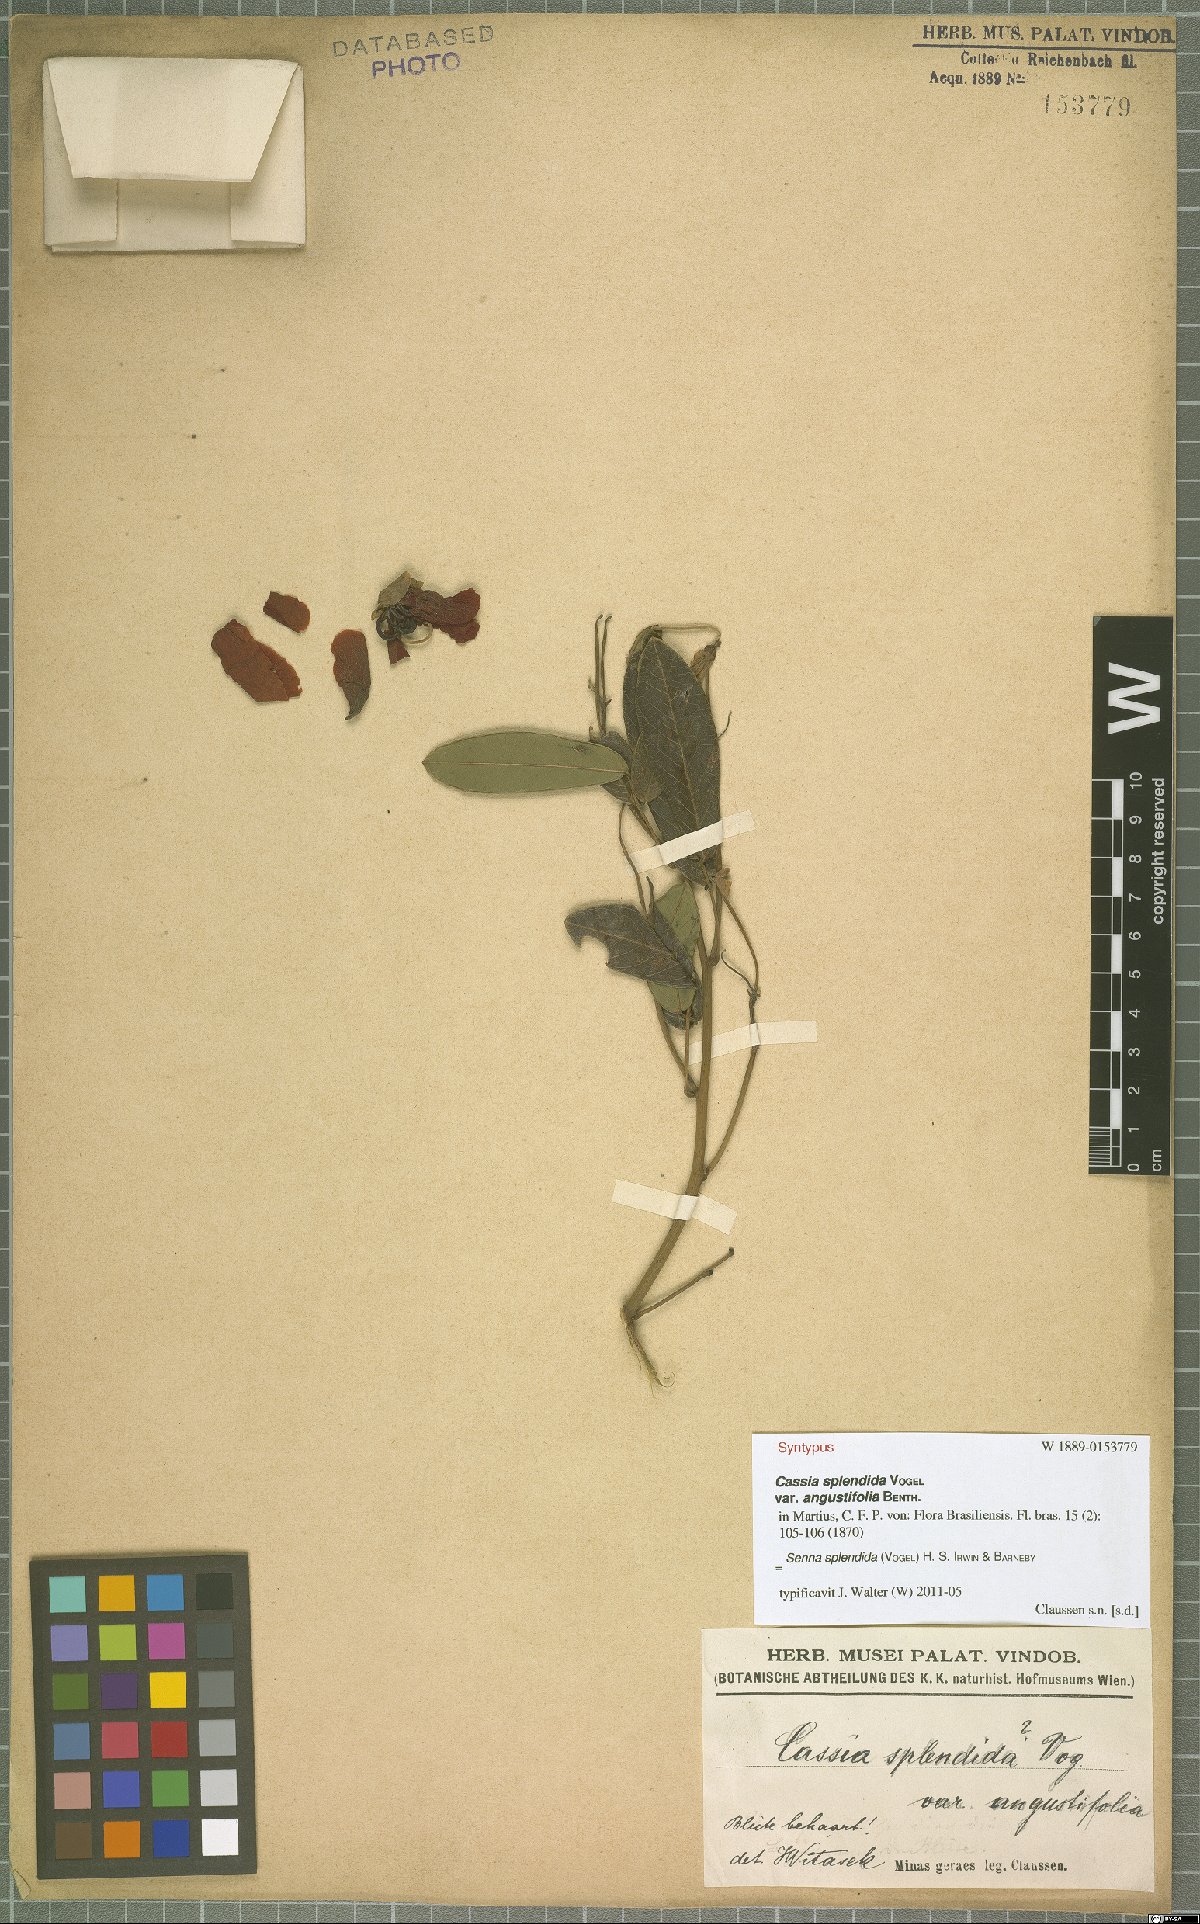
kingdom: Plantae
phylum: Tracheophyta
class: Magnoliopsida
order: Fabales
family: Fabaceae
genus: Senna
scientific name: Senna splendida
